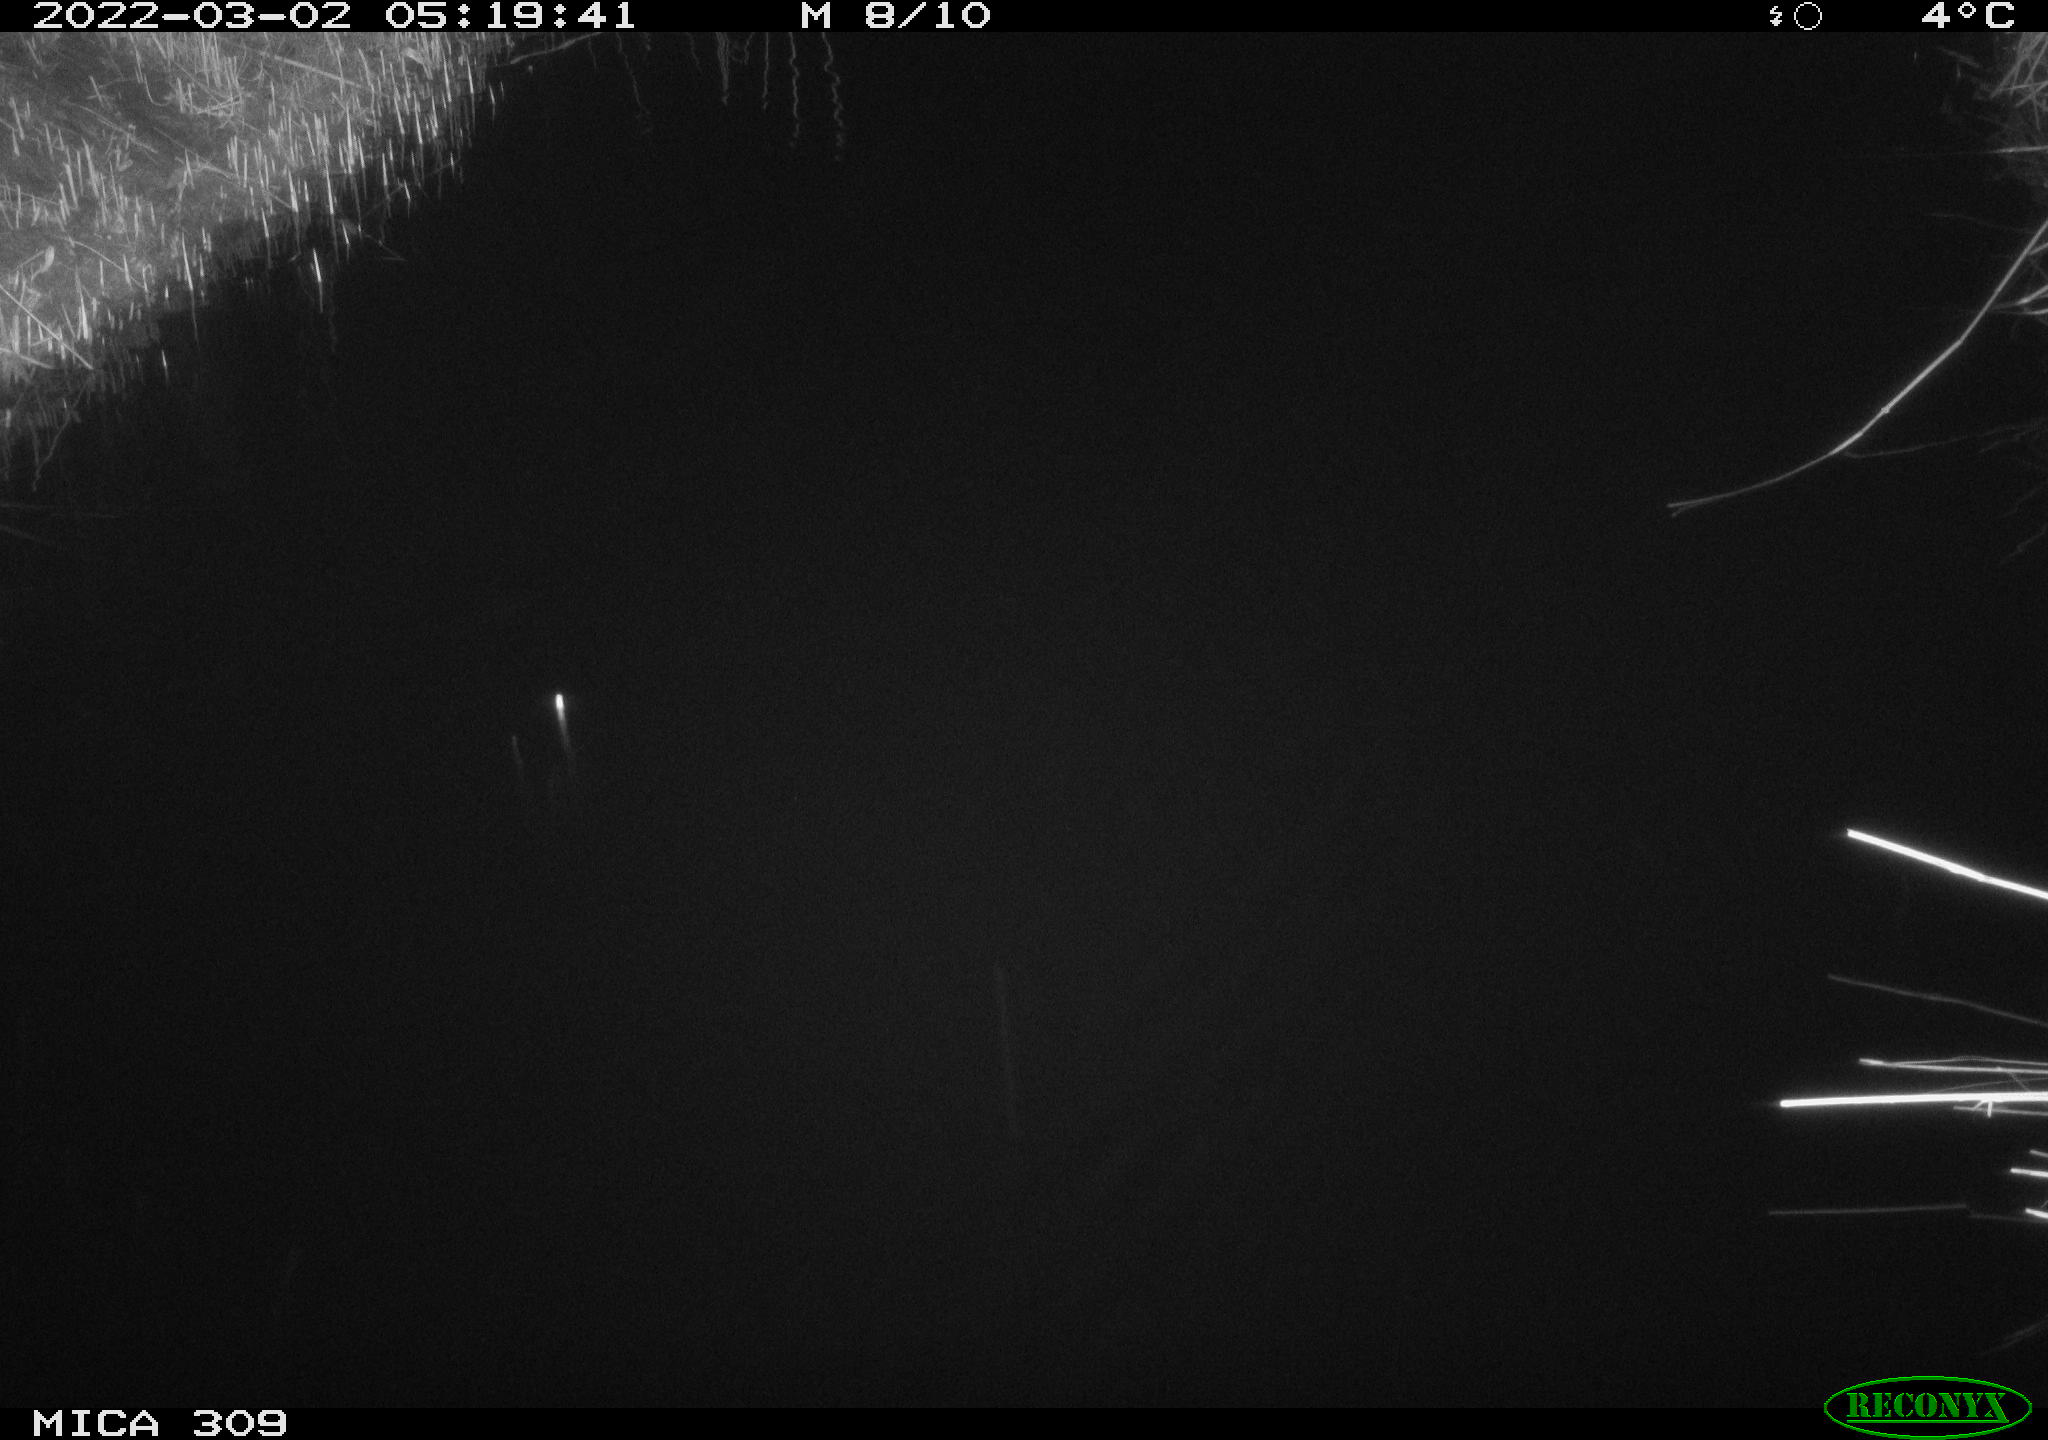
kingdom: Animalia
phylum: Chordata
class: Mammalia
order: Rodentia
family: Muridae
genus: Rattus
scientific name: Rattus norvegicus
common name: Brown rat
